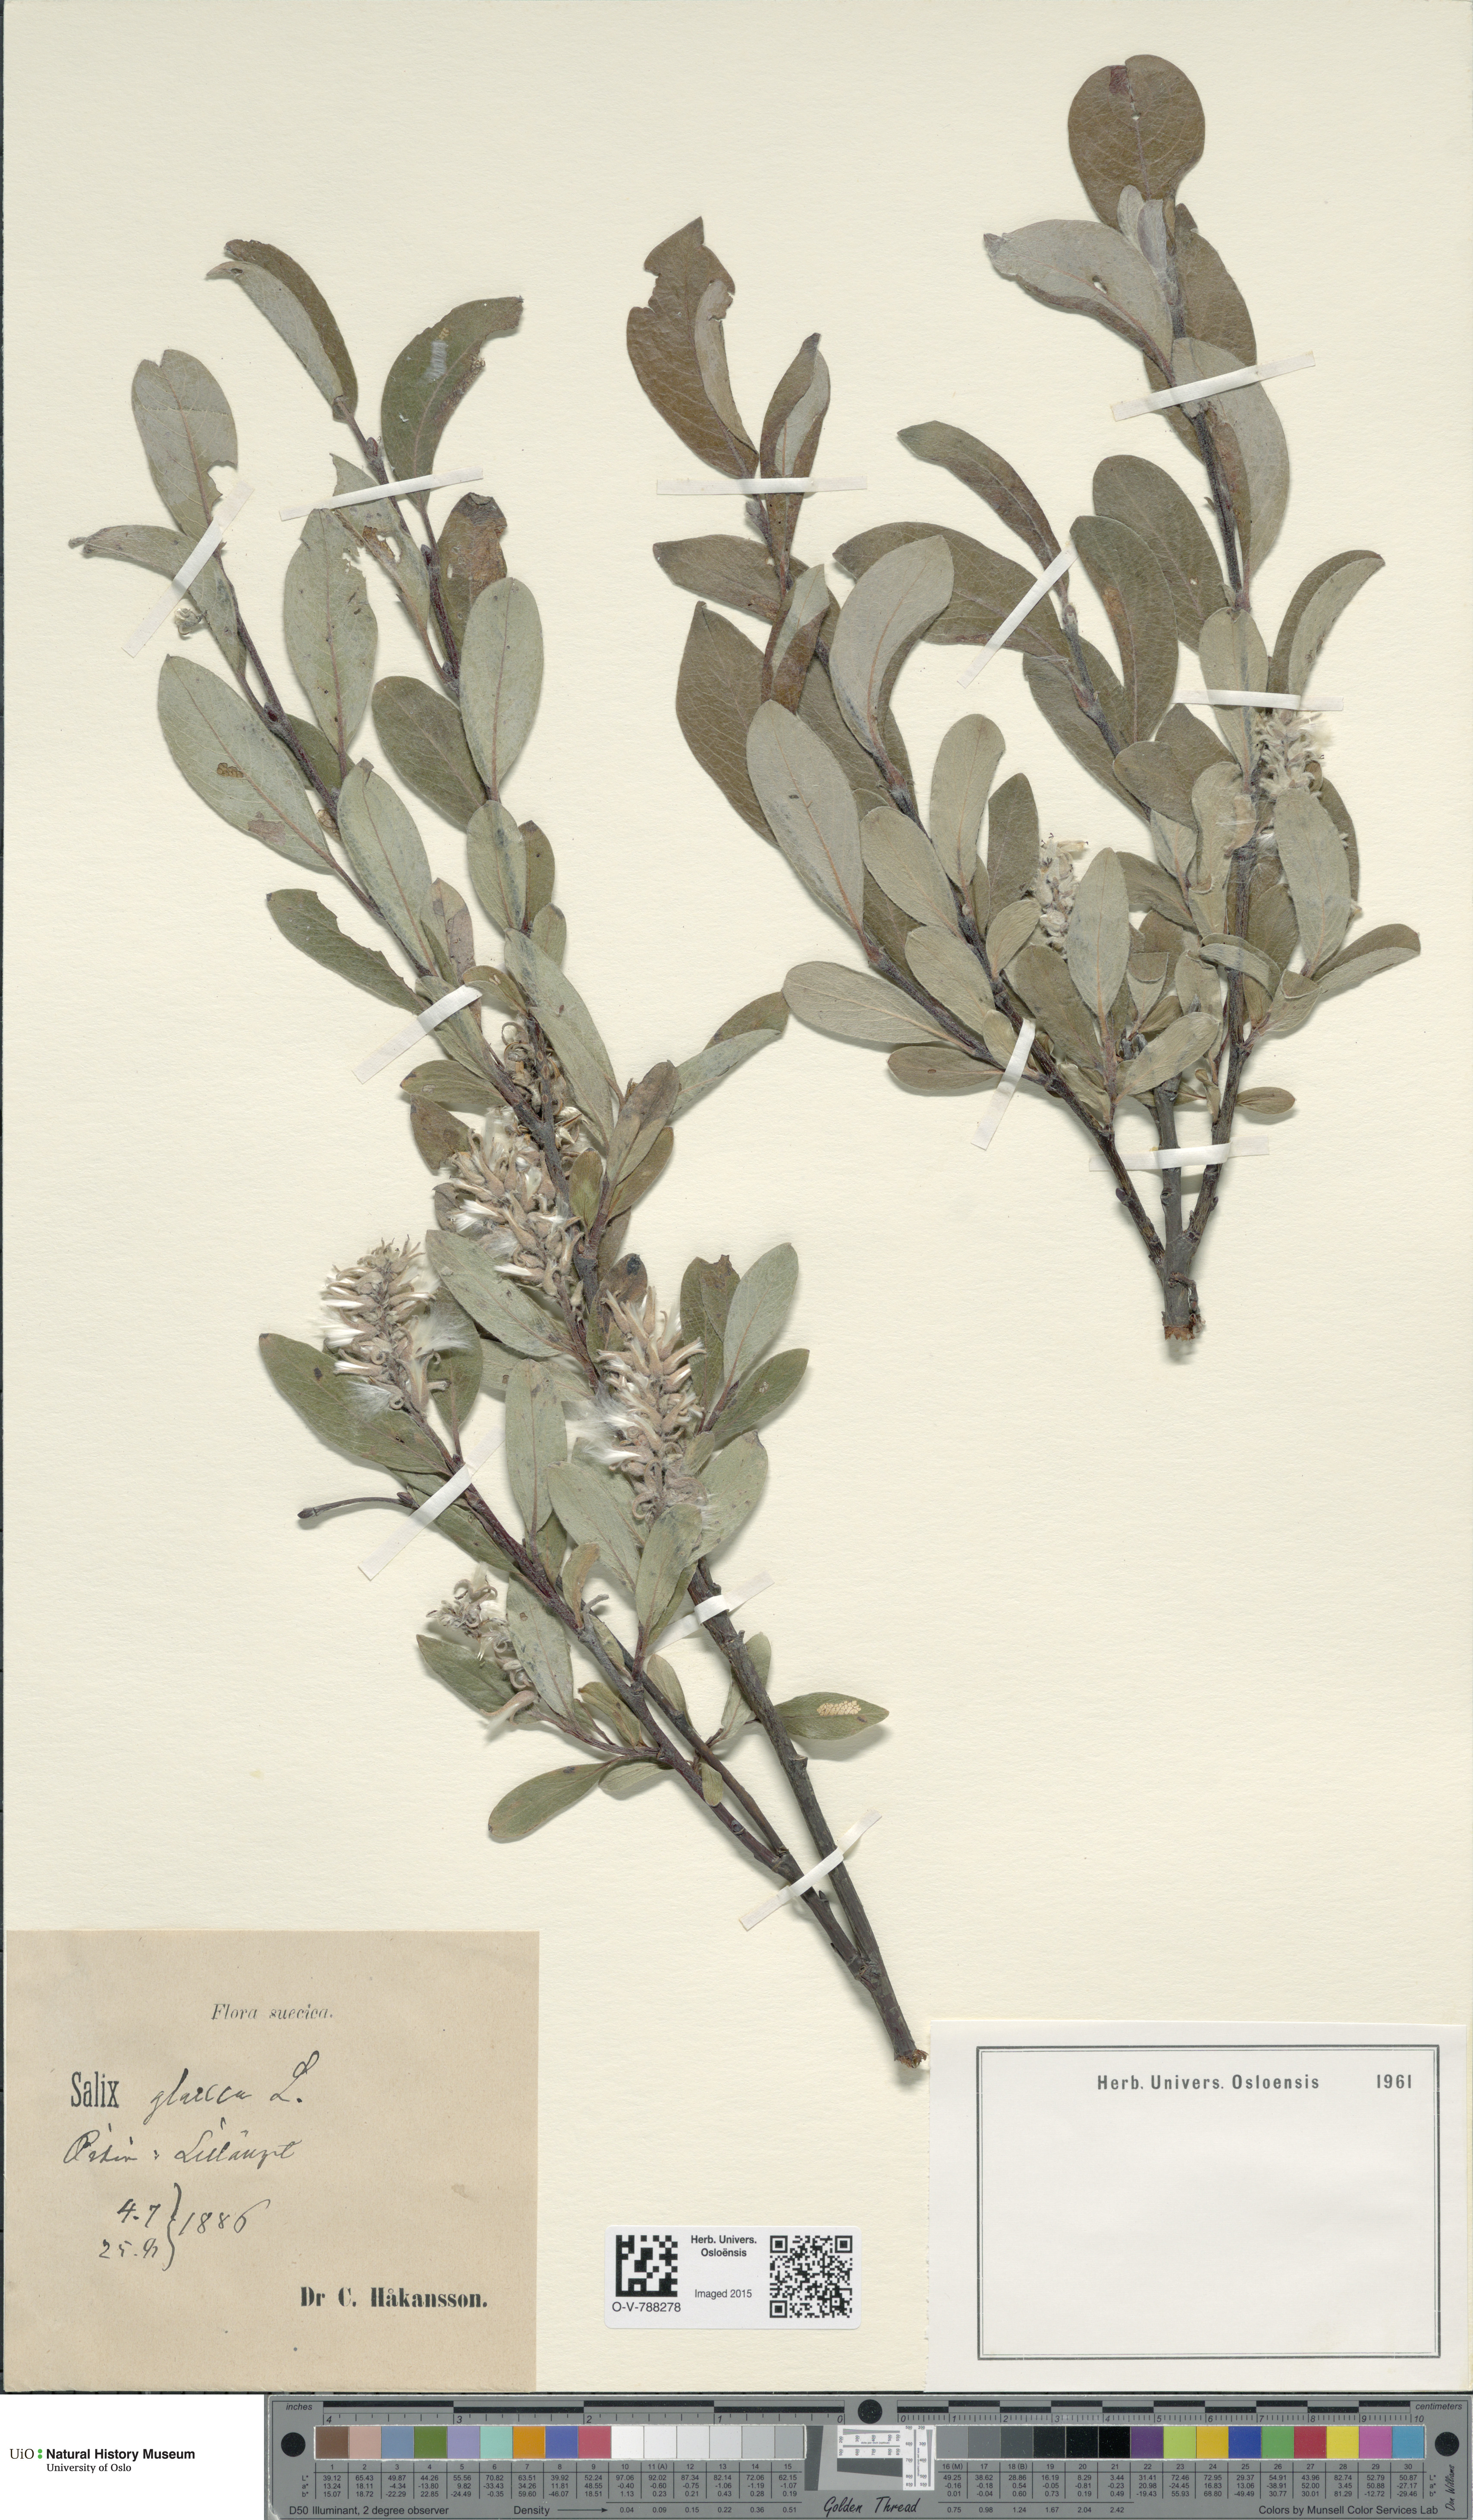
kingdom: Plantae
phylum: Tracheophyta
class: Magnoliopsida
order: Malpighiales
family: Salicaceae
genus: Salix
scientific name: Salix glauca
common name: Glaucous willow
